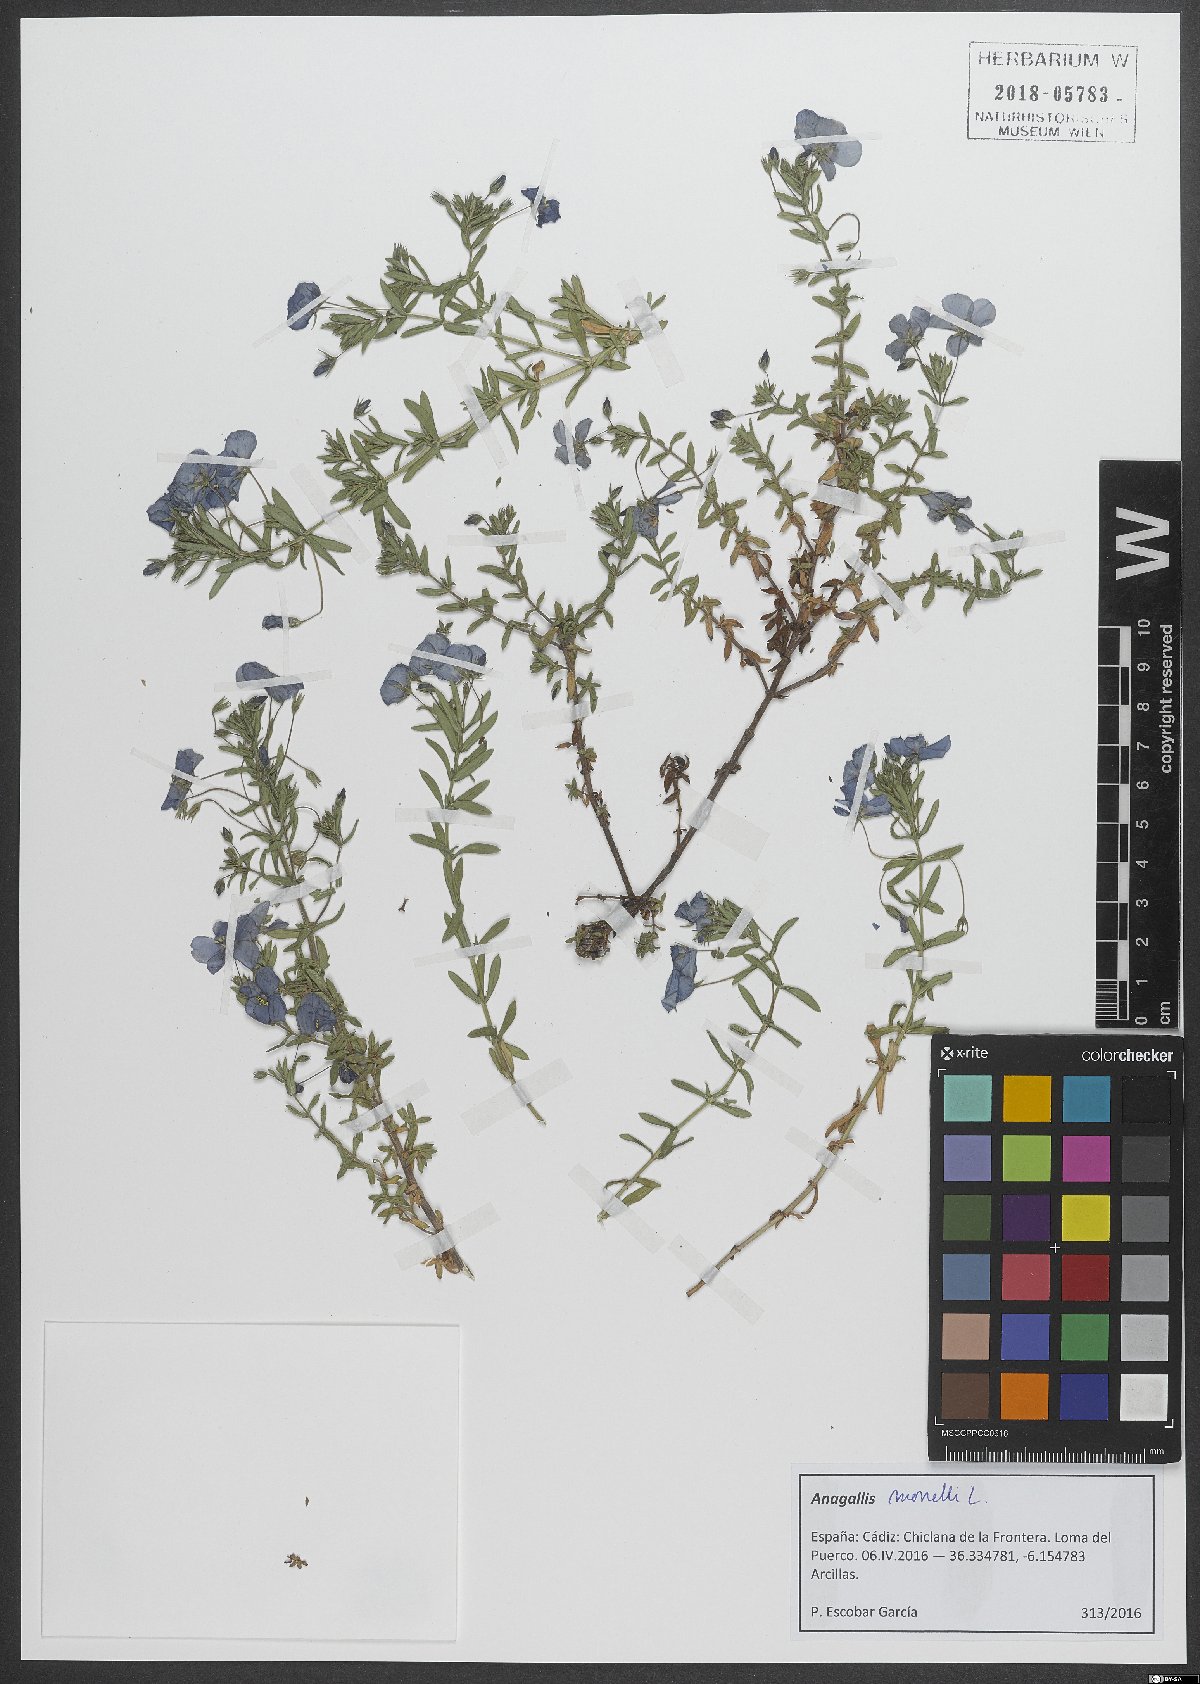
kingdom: Plantae
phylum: Tracheophyta
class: Magnoliopsida
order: Ericales
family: Primulaceae
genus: Lysimachia
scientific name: Lysimachia monelli
